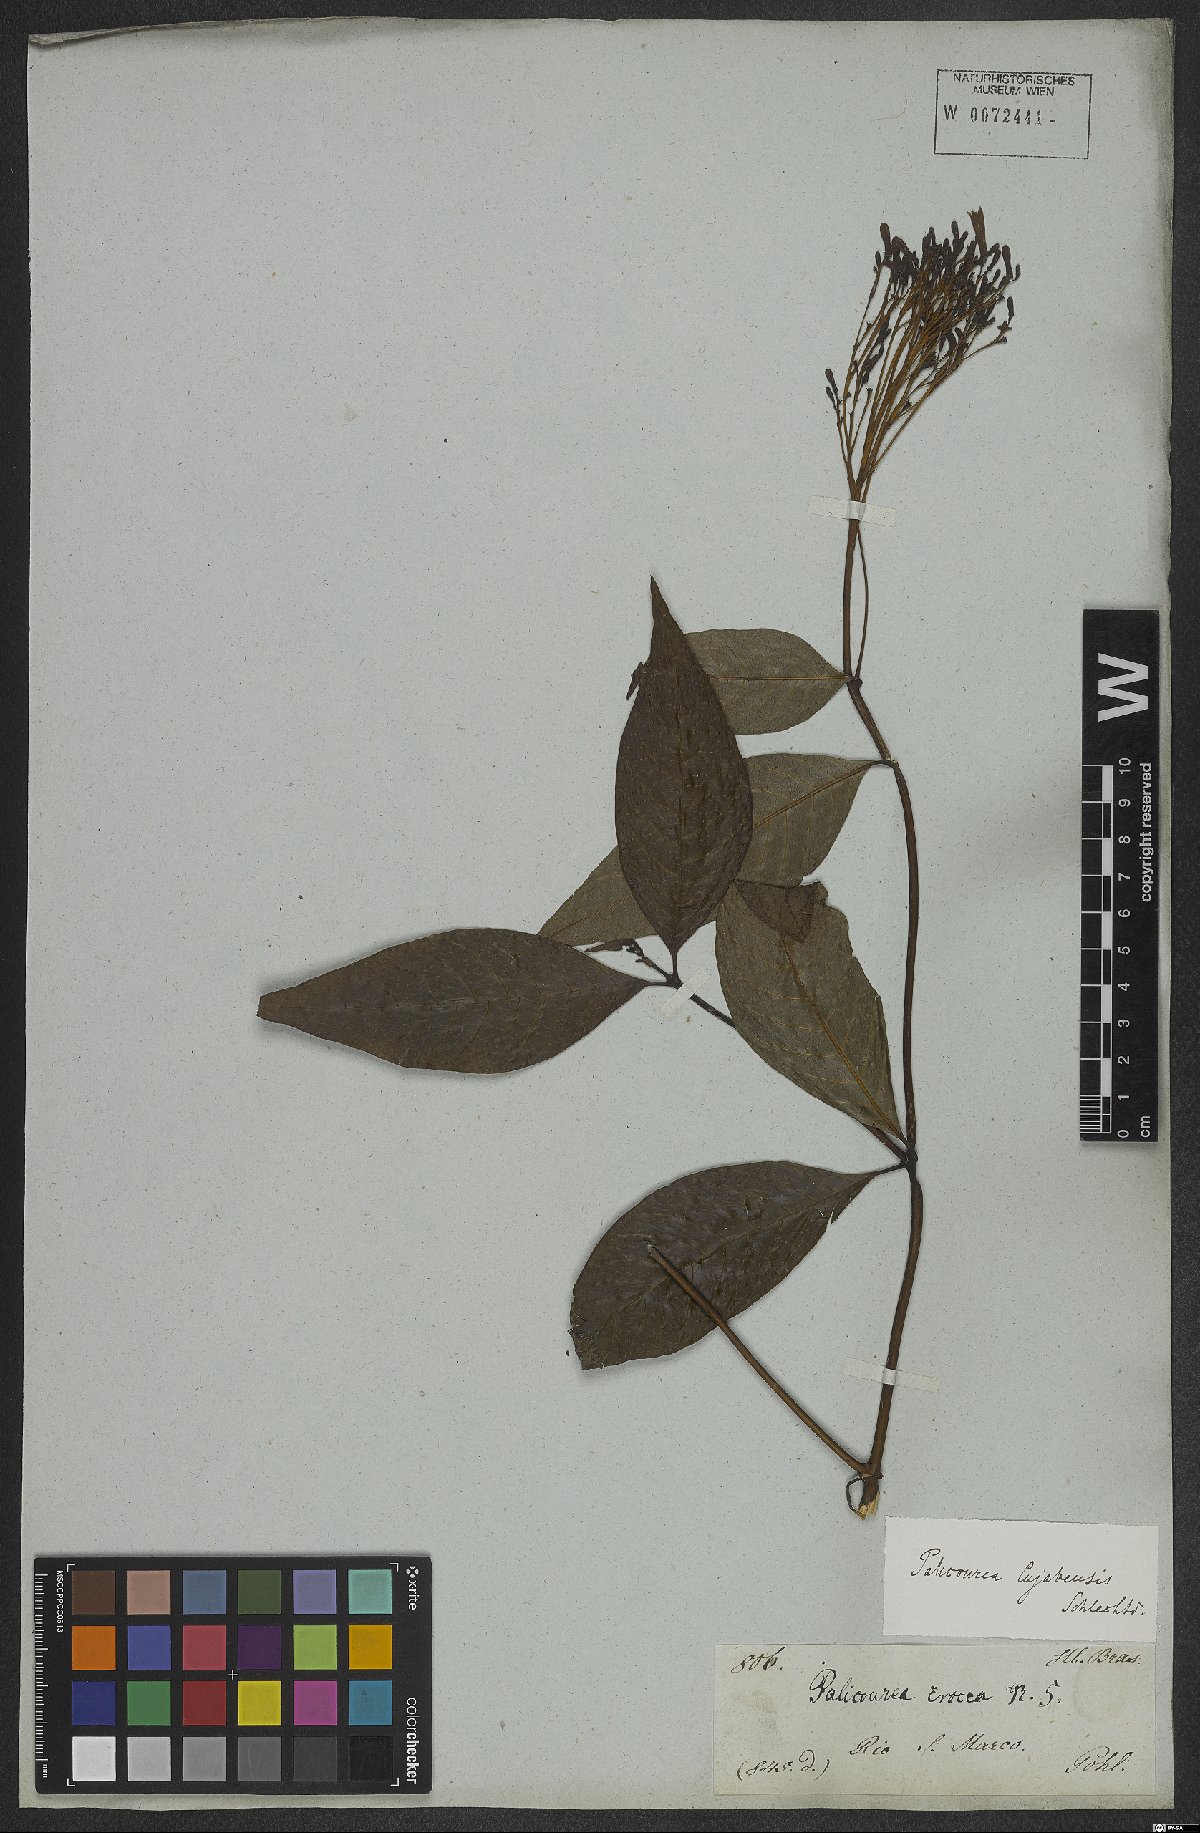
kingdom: Plantae
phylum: Tracheophyta
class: Magnoliopsida
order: Gentianales
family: Rubiaceae
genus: Palicourea
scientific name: Palicourea crocea
